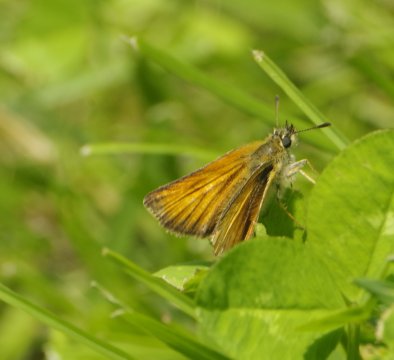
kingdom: Animalia
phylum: Arthropoda
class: Insecta
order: Lepidoptera
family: Hesperiidae
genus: Thymelicus
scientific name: Thymelicus lineola
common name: European Skipper
